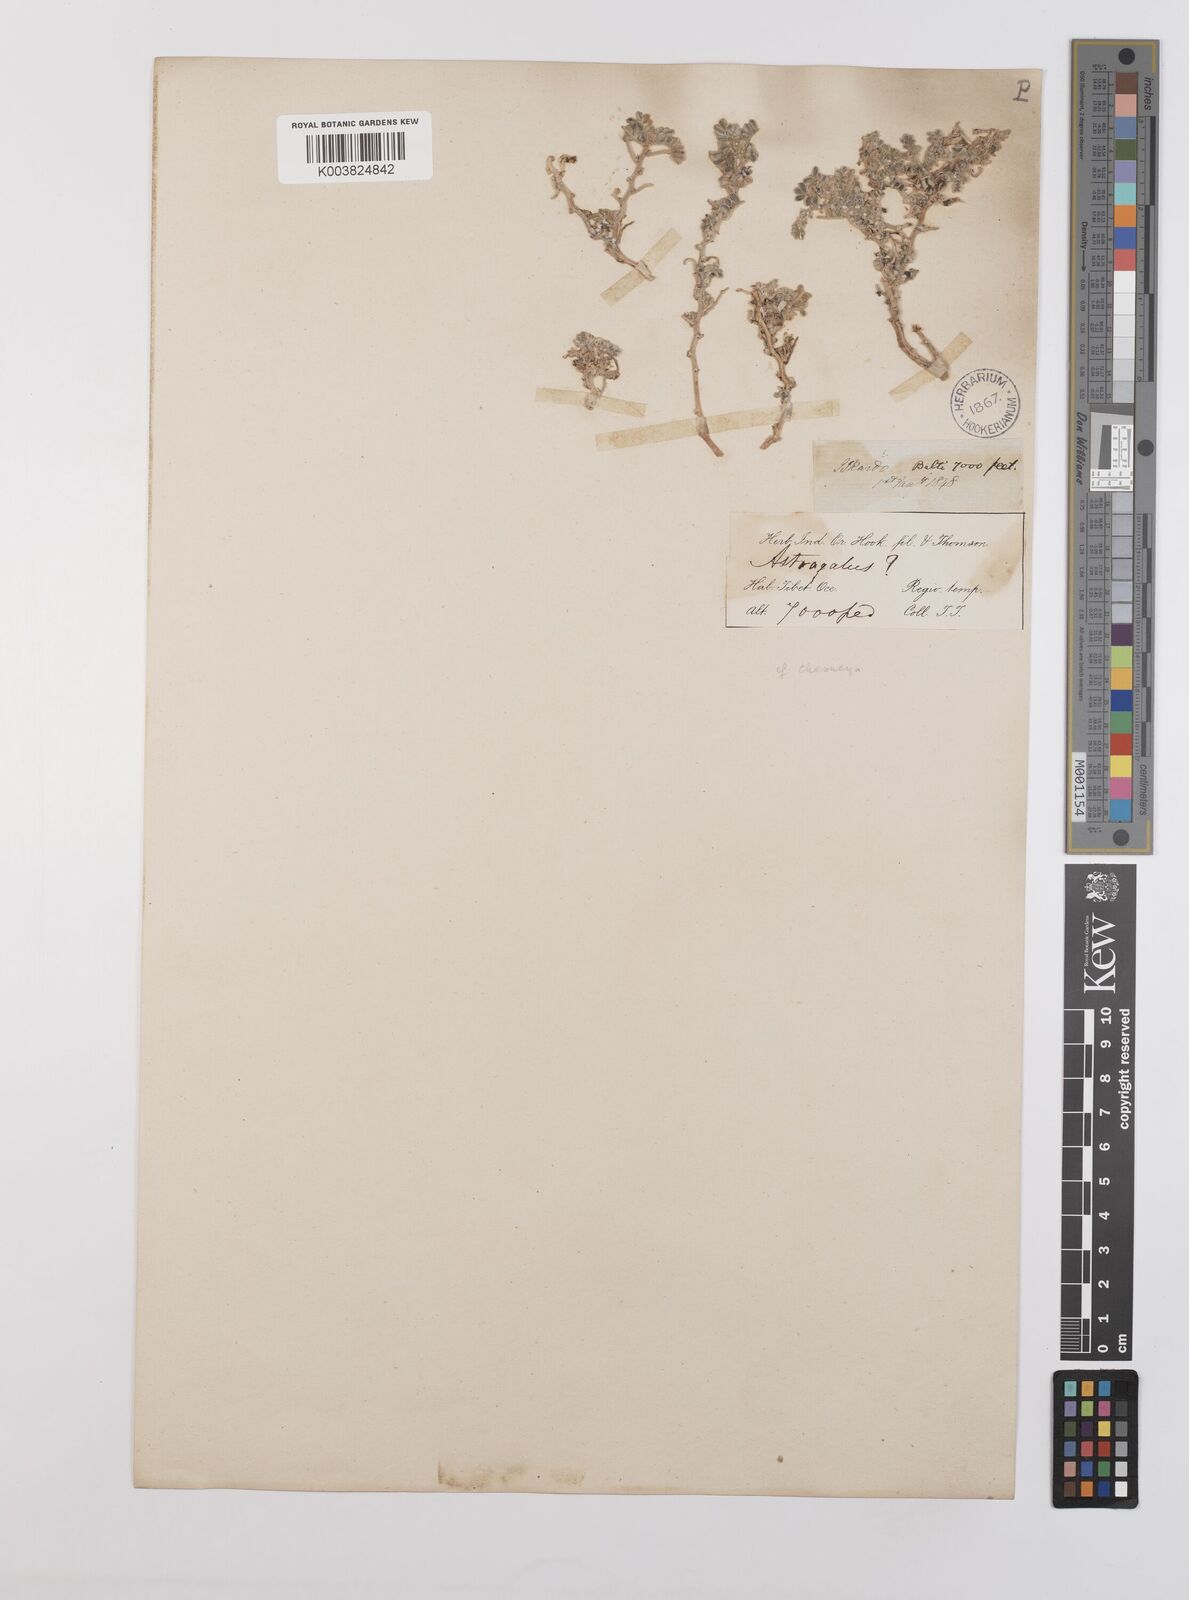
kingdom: Plantae
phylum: Tracheophyta
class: Magnoliopsida
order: Fabales
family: Fabaceae
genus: Chesneya
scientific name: Chesneya depressa
